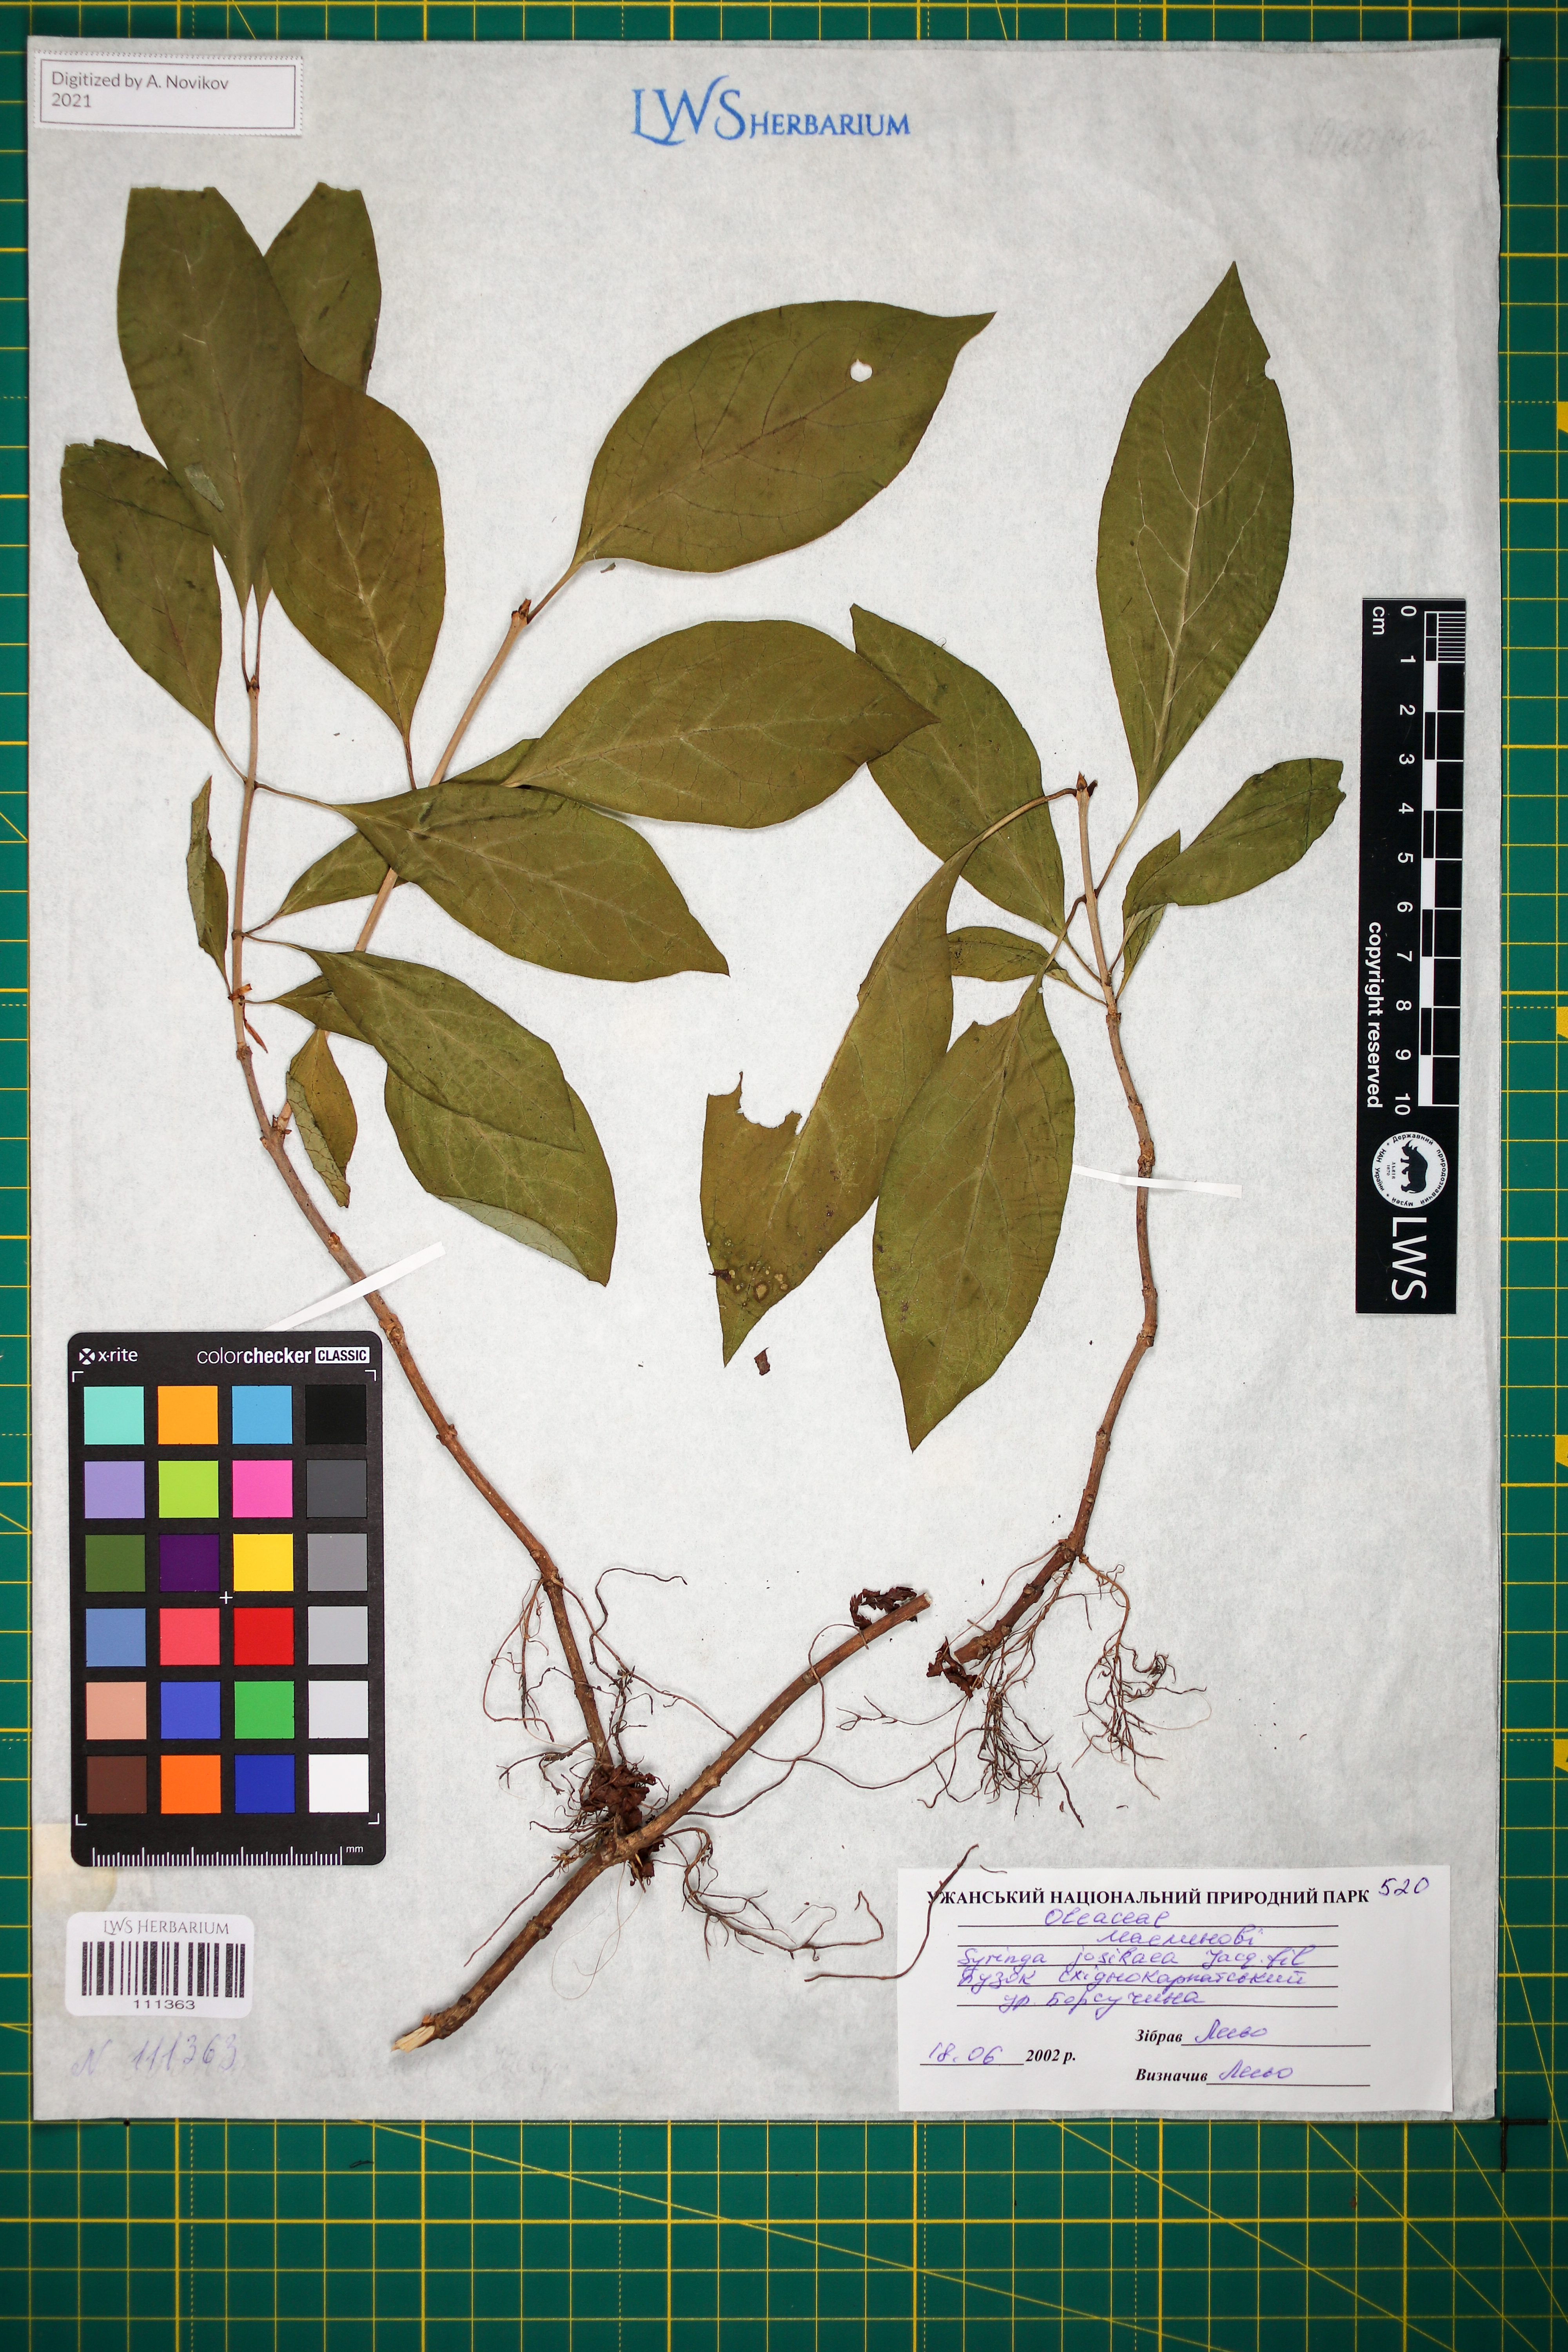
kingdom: Plantae
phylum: Tracheophyta
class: Magnoliopsida
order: Lamiales
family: Oleaceae
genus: Syringa
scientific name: Syringa josikaea
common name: Hungarian lilac
